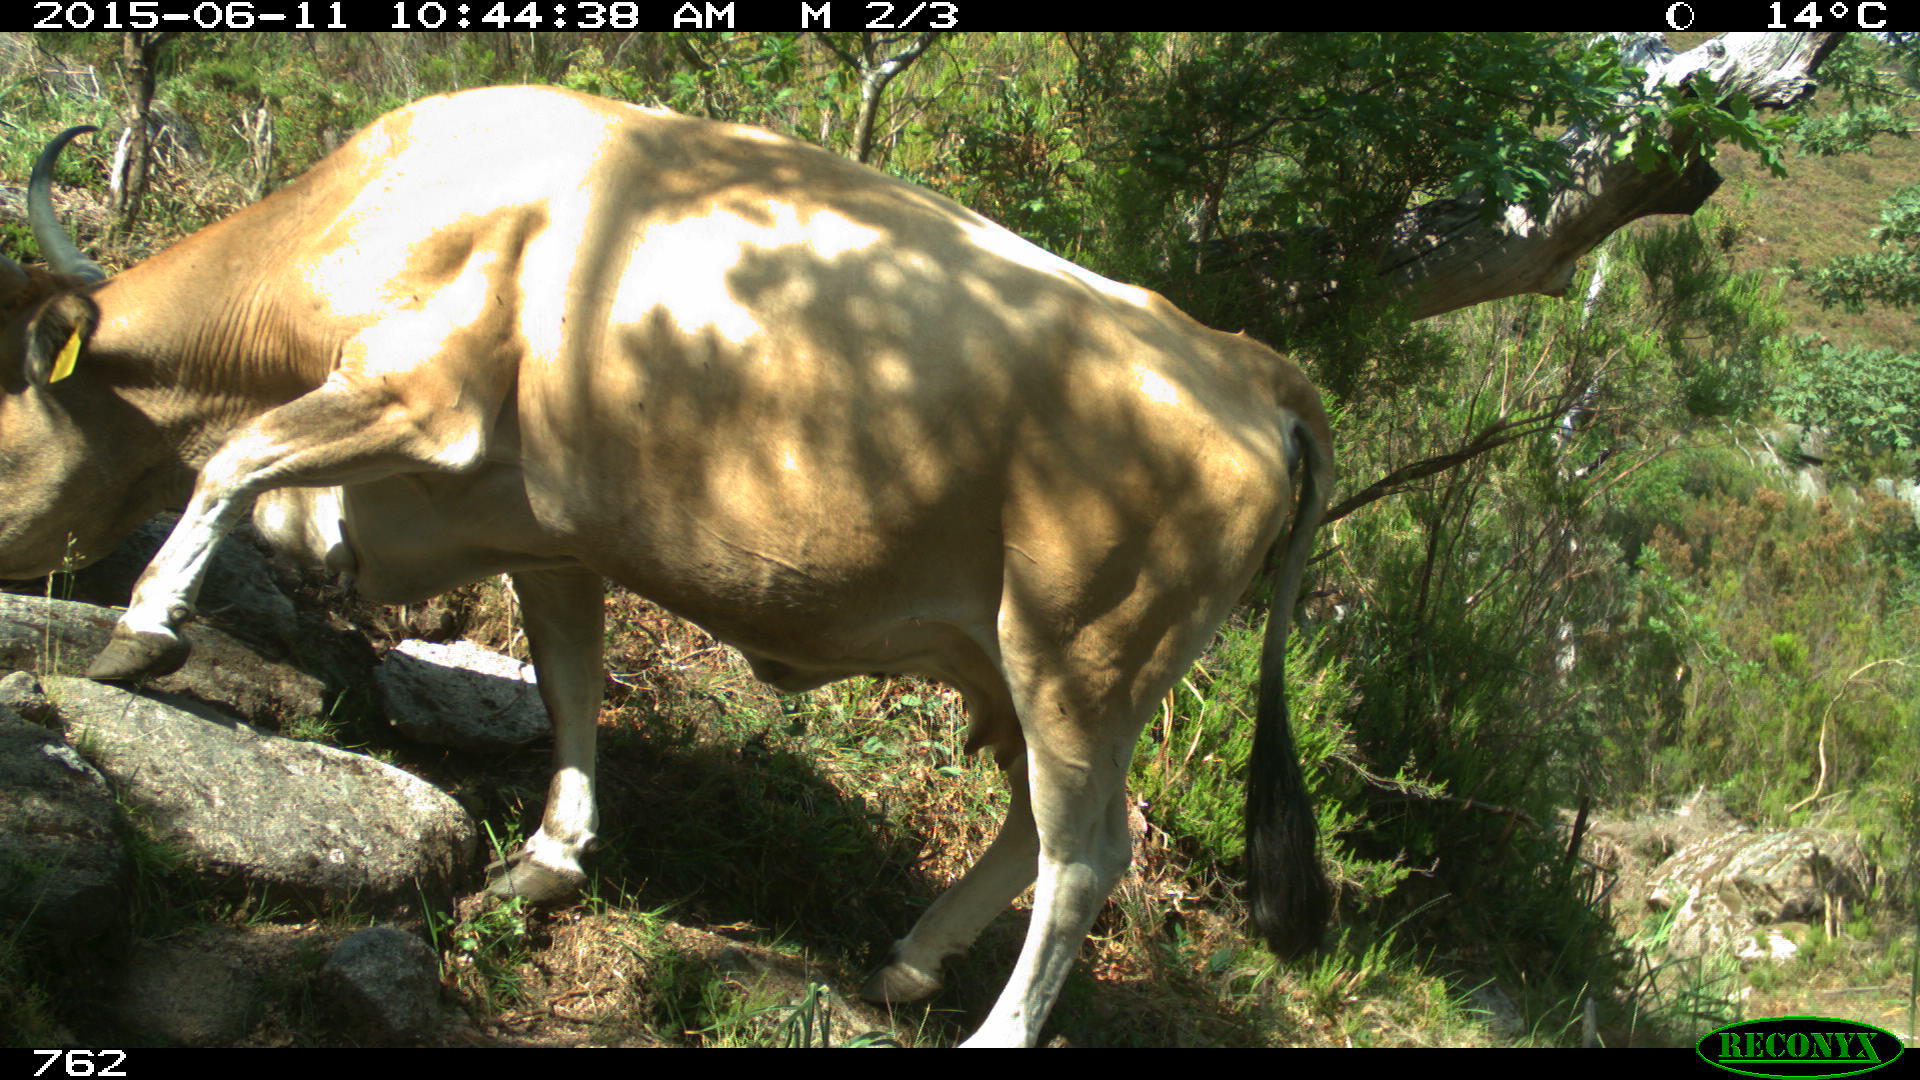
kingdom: Animalia
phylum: Chordata
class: Mammalia
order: Artiodactyla
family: Bovidae
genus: Bos
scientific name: Bos taurus
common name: Domesticated cattle
